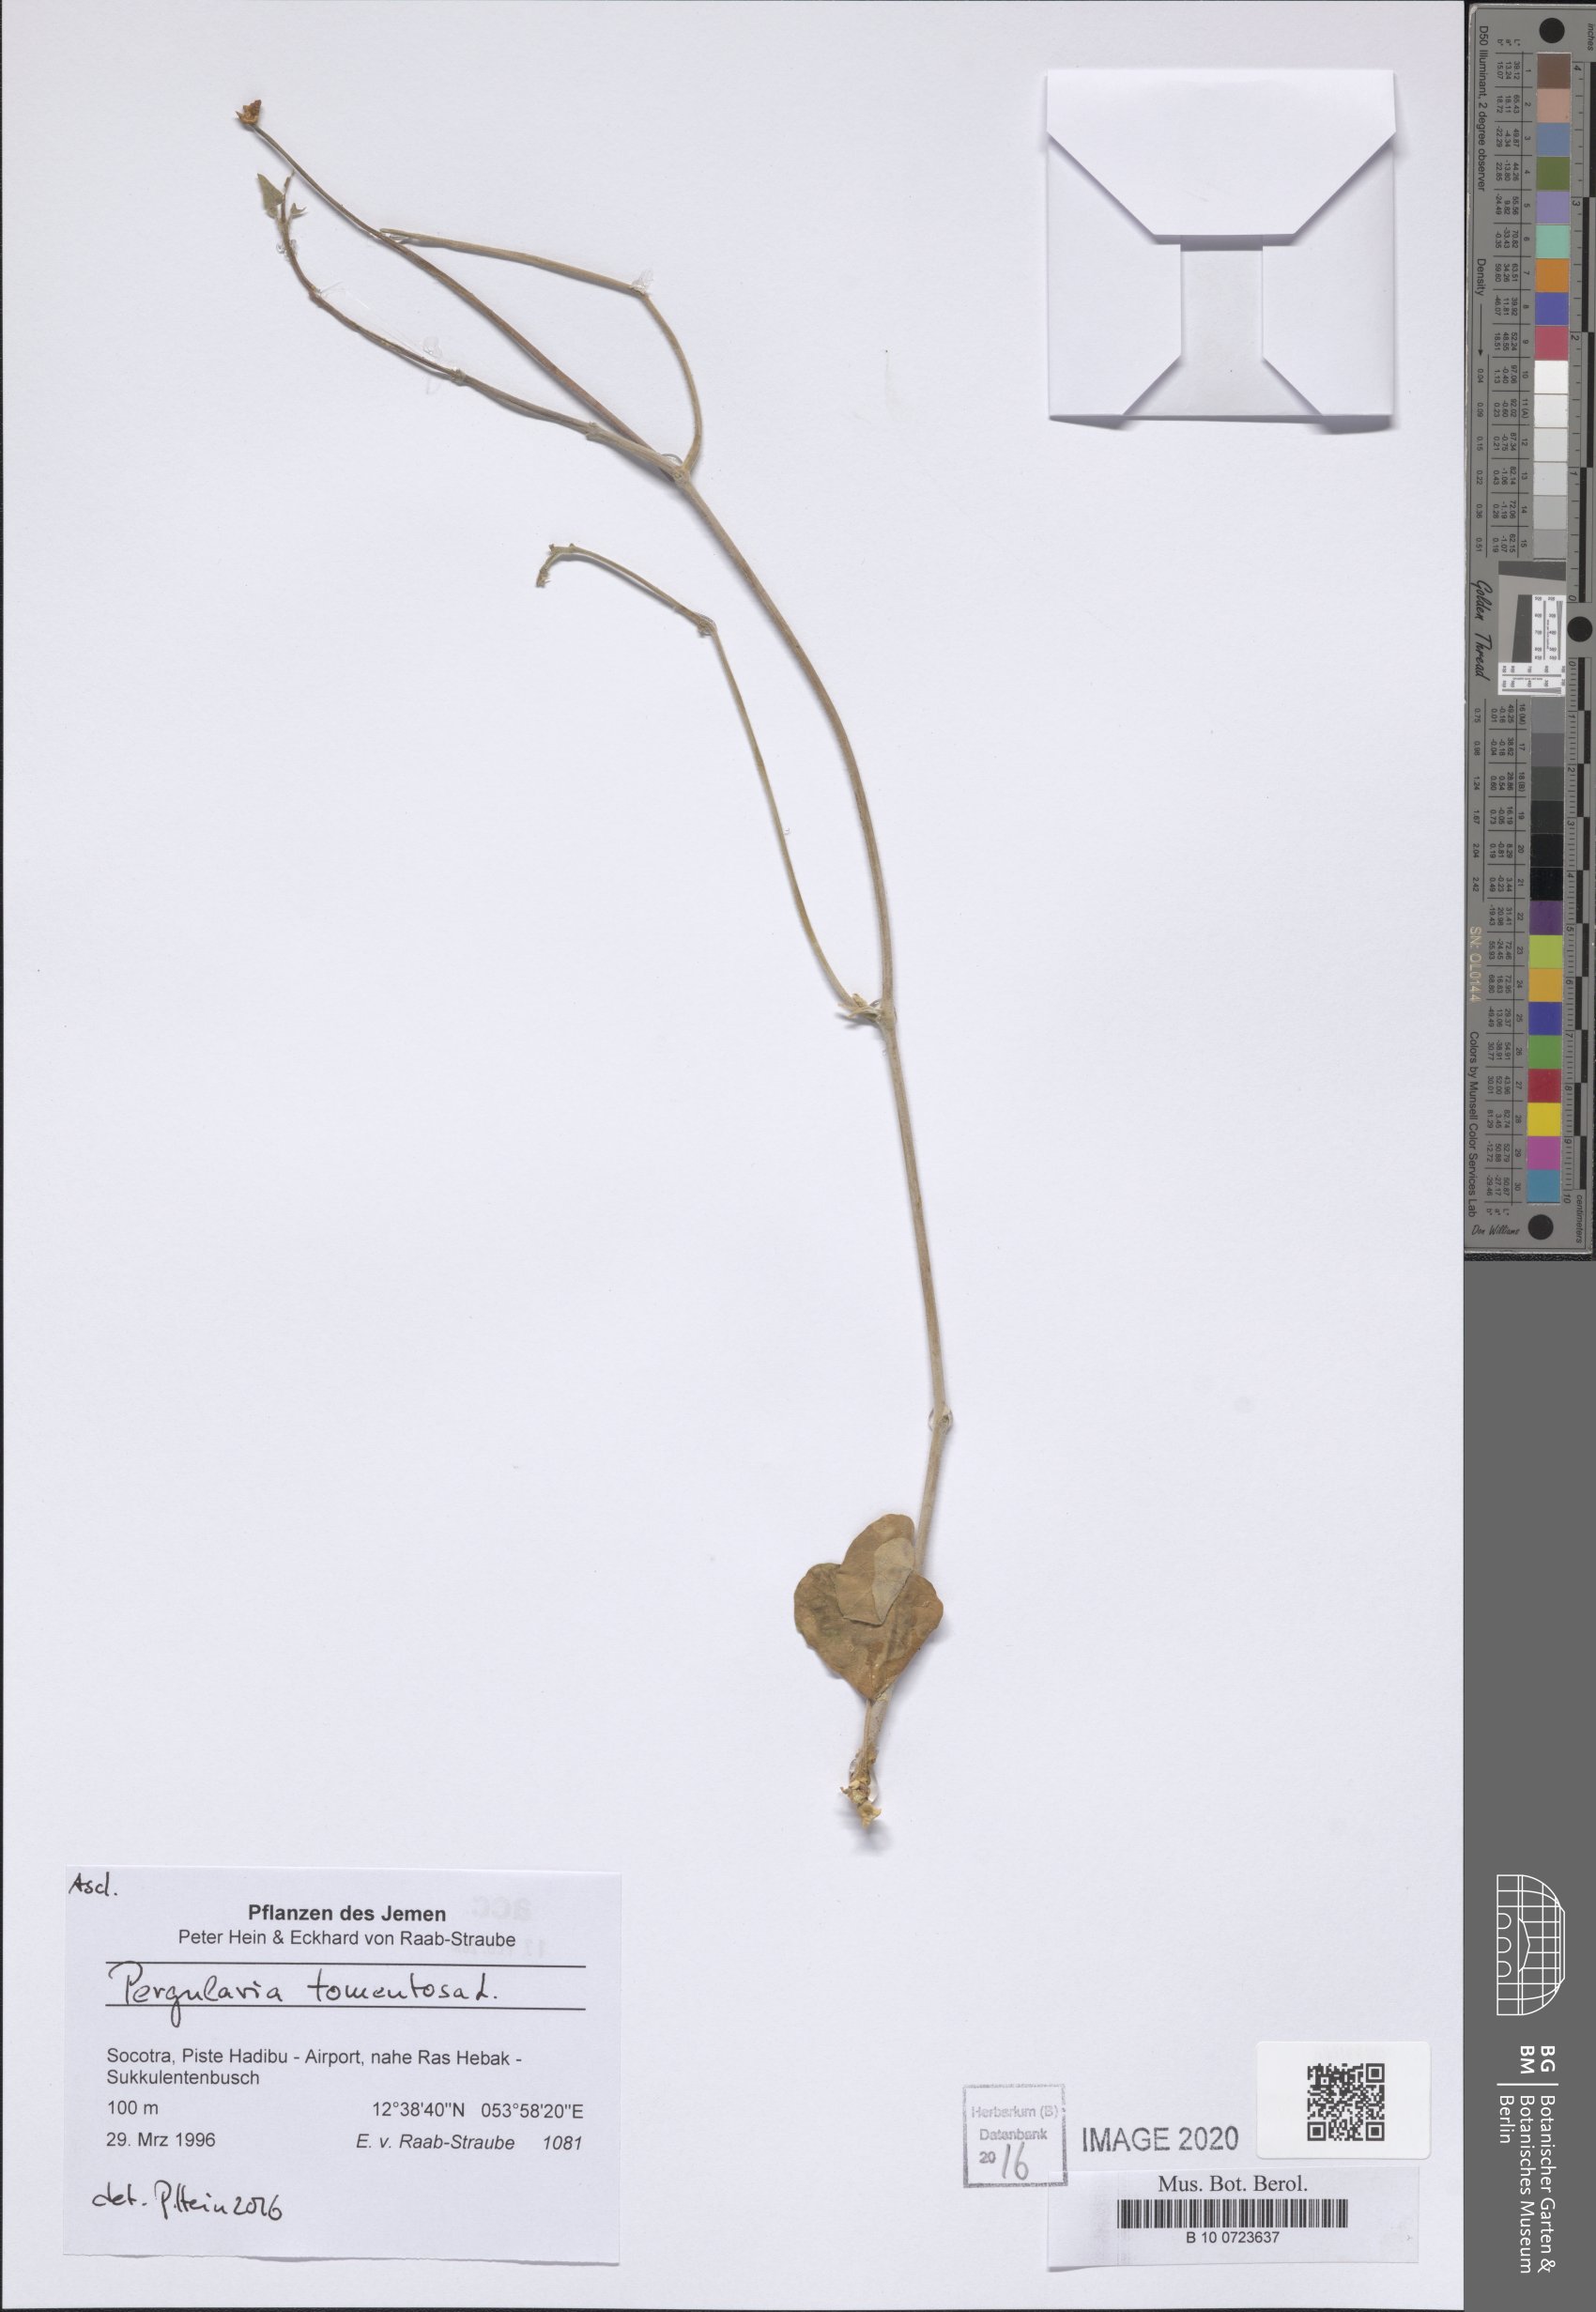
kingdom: Plantae
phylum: Tracheophyta
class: Magnoliopsida
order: Gentianales
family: Apocynaceae
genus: Pergularia
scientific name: Pergularia tomentosa
